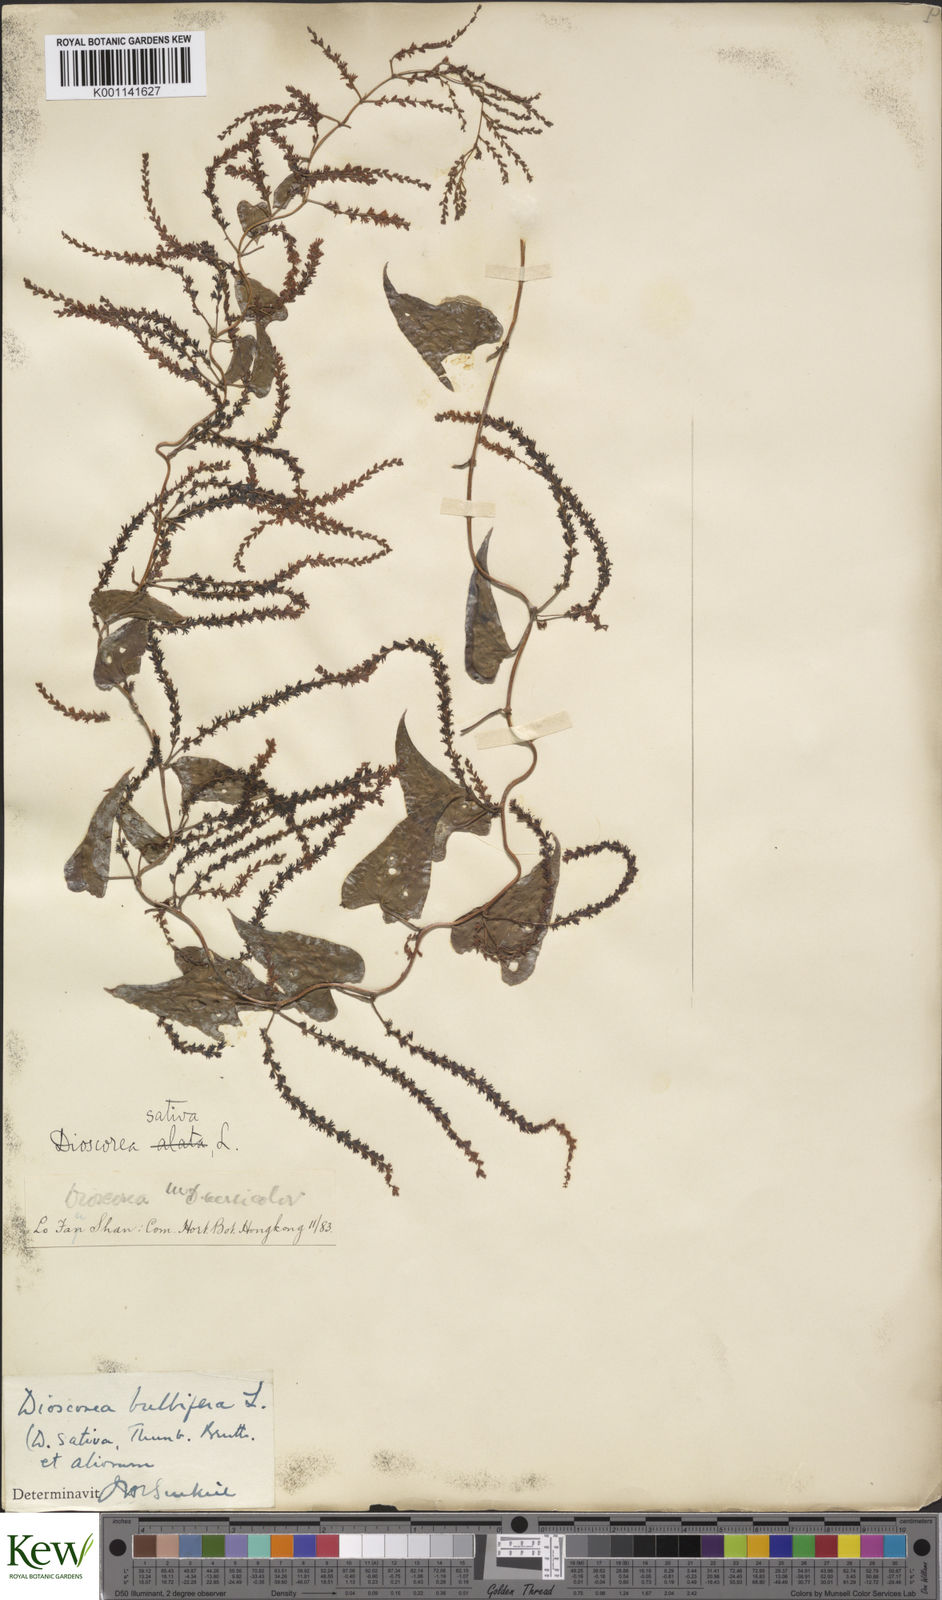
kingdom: Plantae
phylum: Tracheophyta
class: Liliopsida
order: Dioscoreales
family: Dioscoreaceae
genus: Dioscorea
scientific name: Dioscorea bulbifera
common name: Air yam
